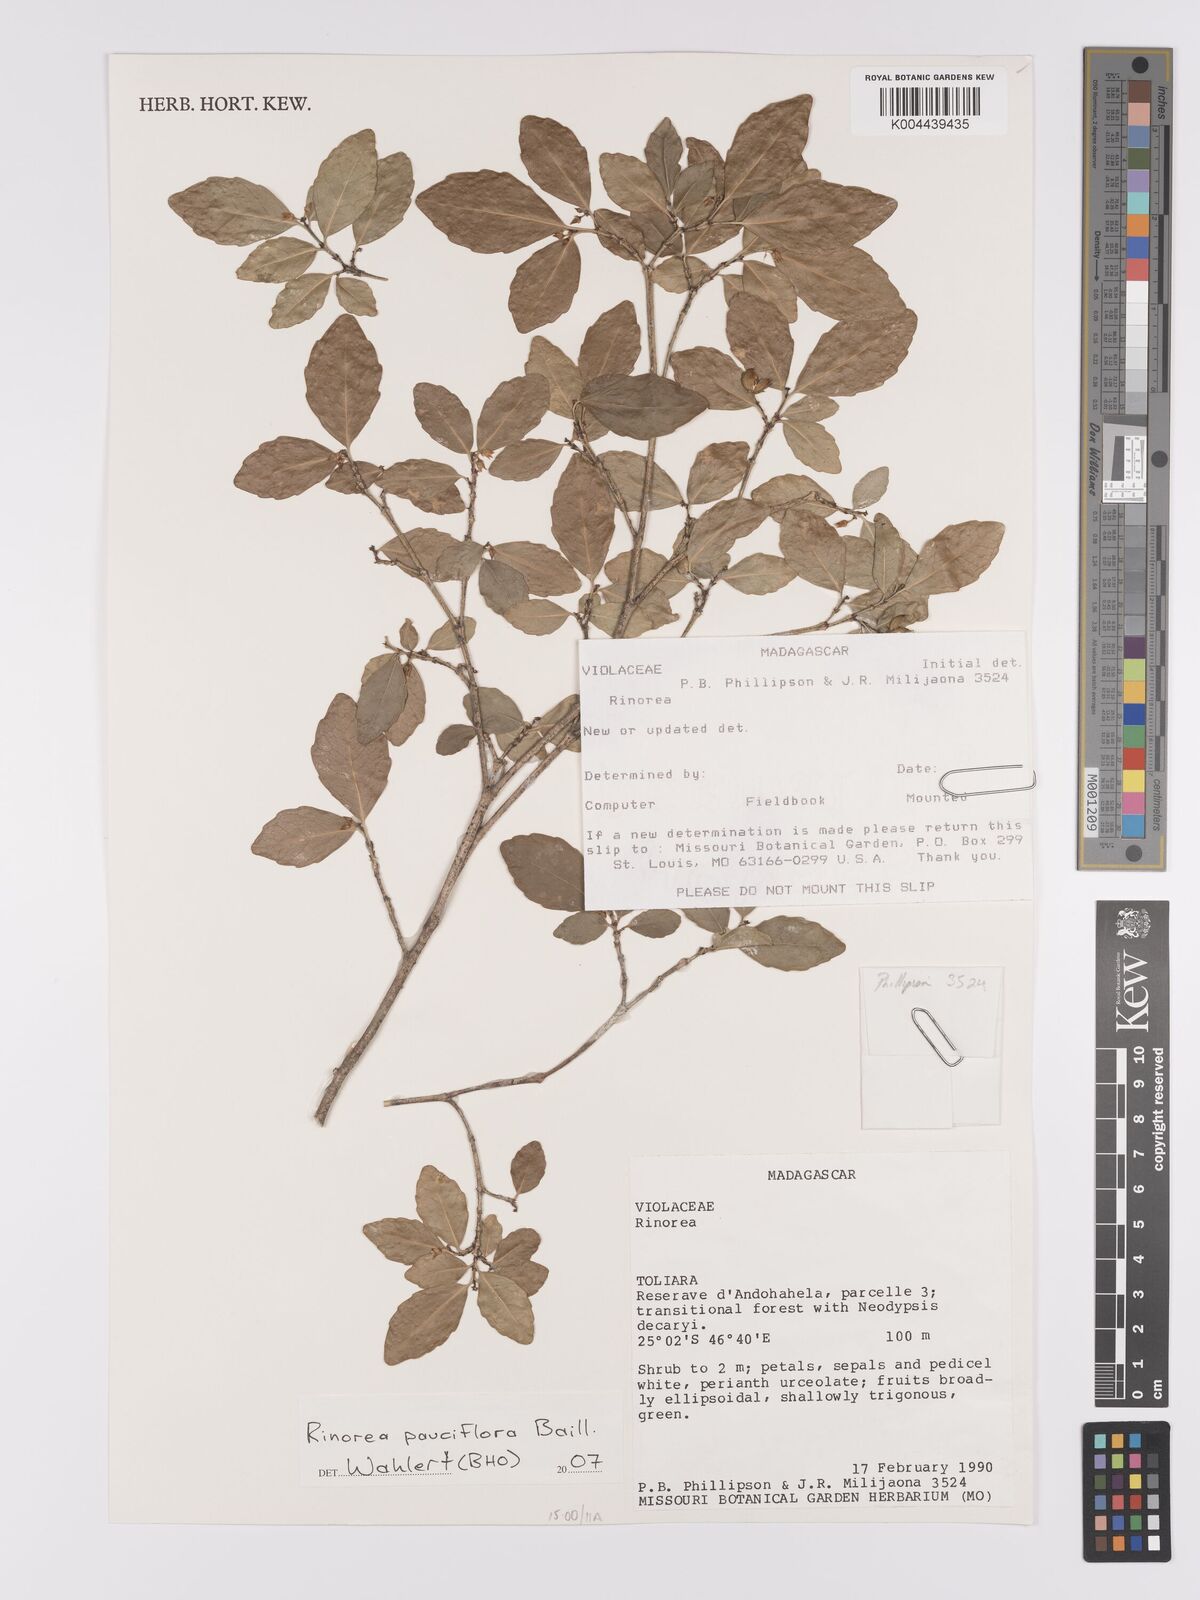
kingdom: Plantae
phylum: Tracheophyta
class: Magnoliopsida
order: Malpighiales
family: Violaceae
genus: Rinorea
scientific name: Rinorea pauciflora
